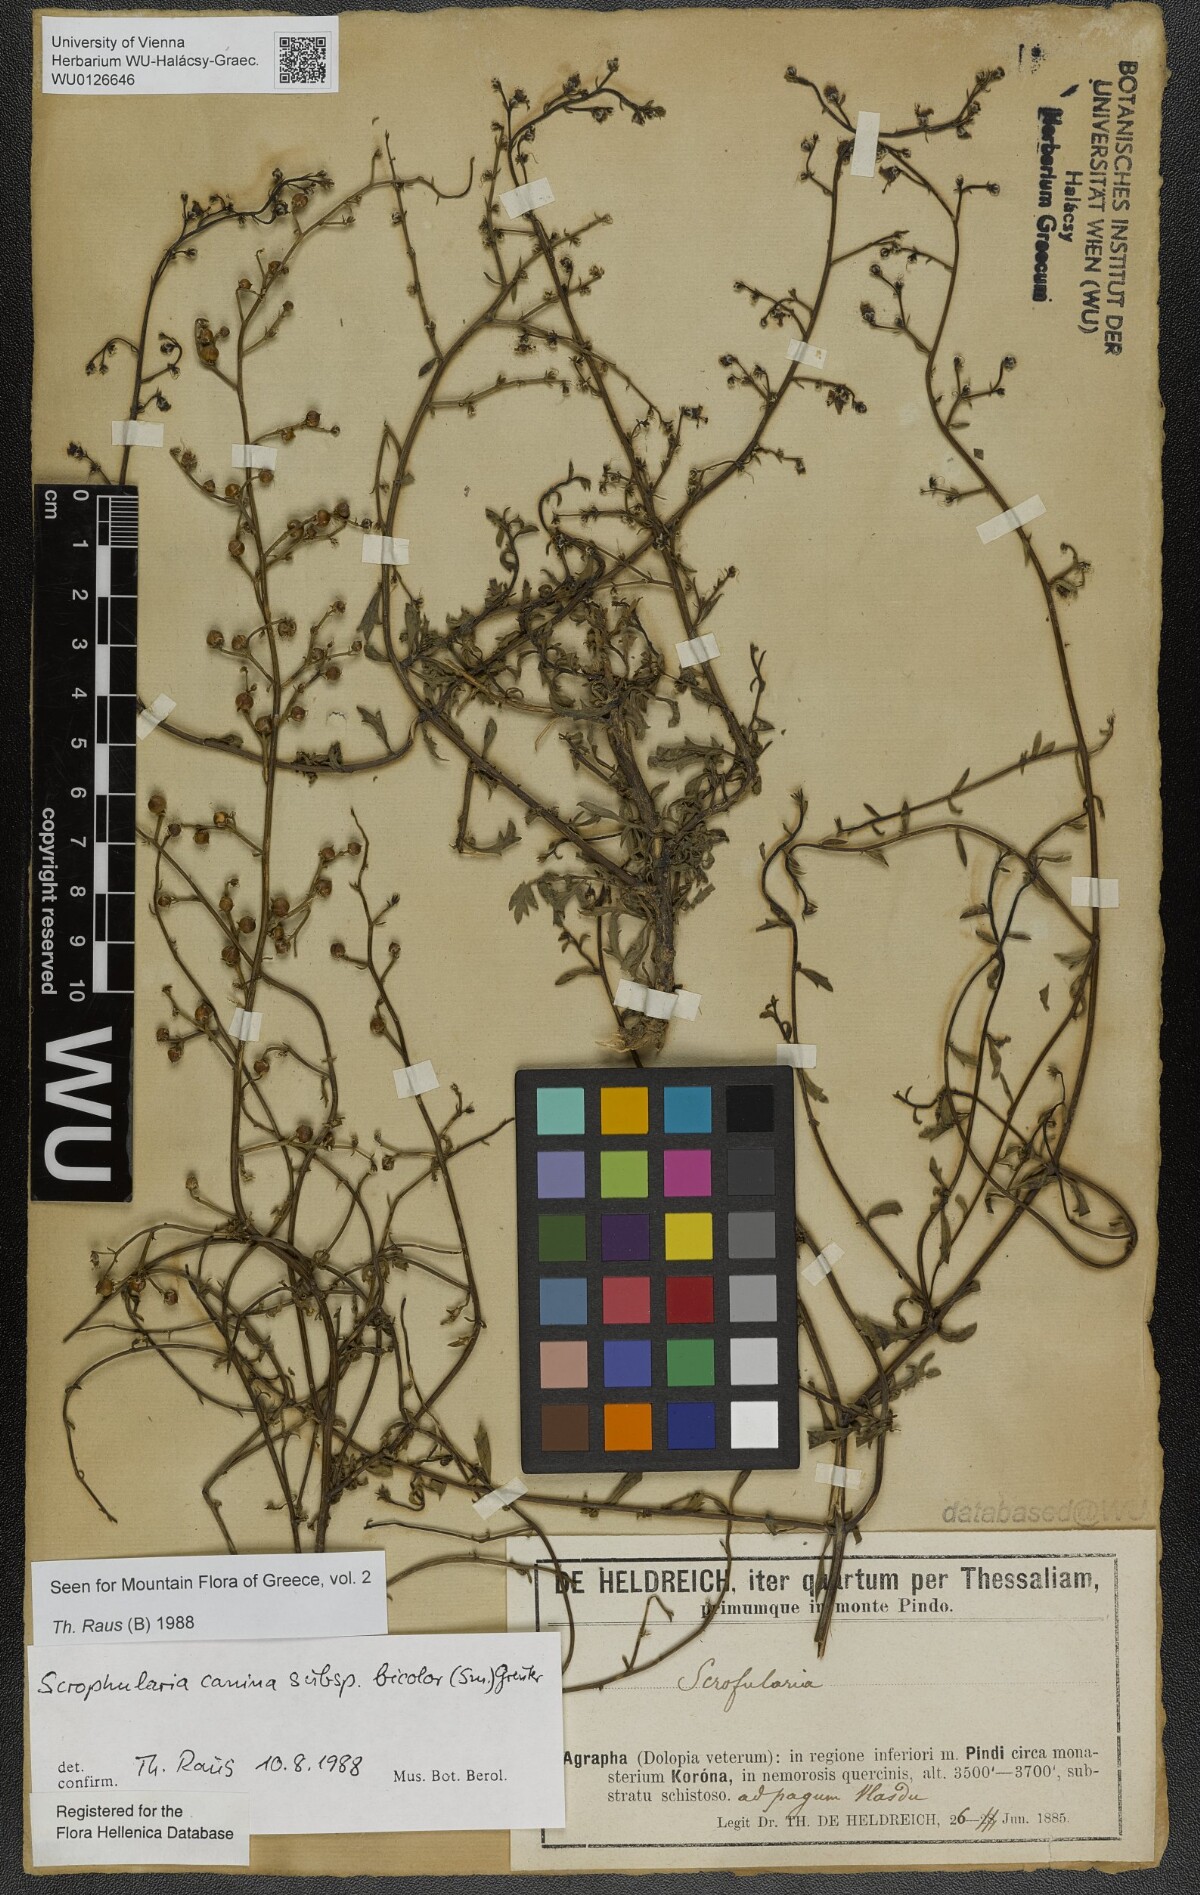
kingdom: Plantae
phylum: Tracheophyta
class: Magnoliopsida
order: Lamiales
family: Scrophulariaceae
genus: Scrophularia
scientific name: Scrophularia canina
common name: French figwort
